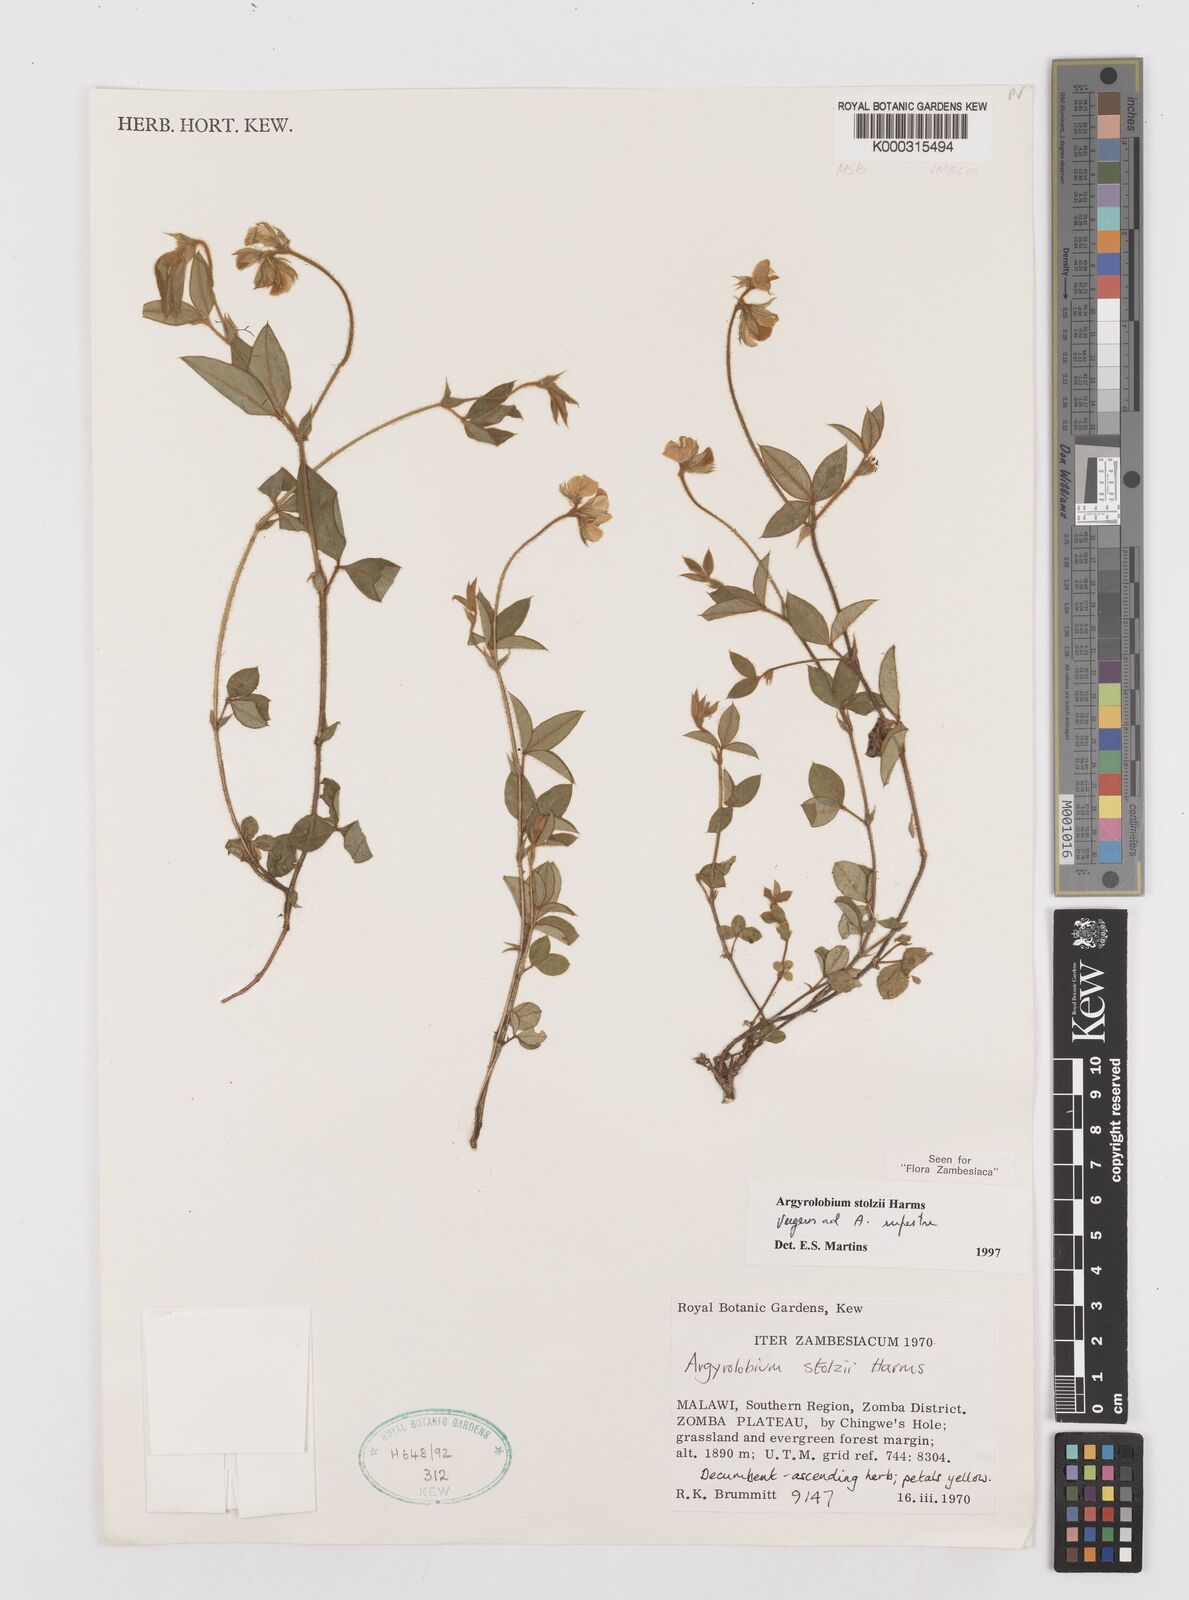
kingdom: Plantae
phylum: Tracheophyta
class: Magnoliopsida
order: Fabales
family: Fabaceae
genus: Argyrolobium
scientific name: Argyrolobium stolzii
